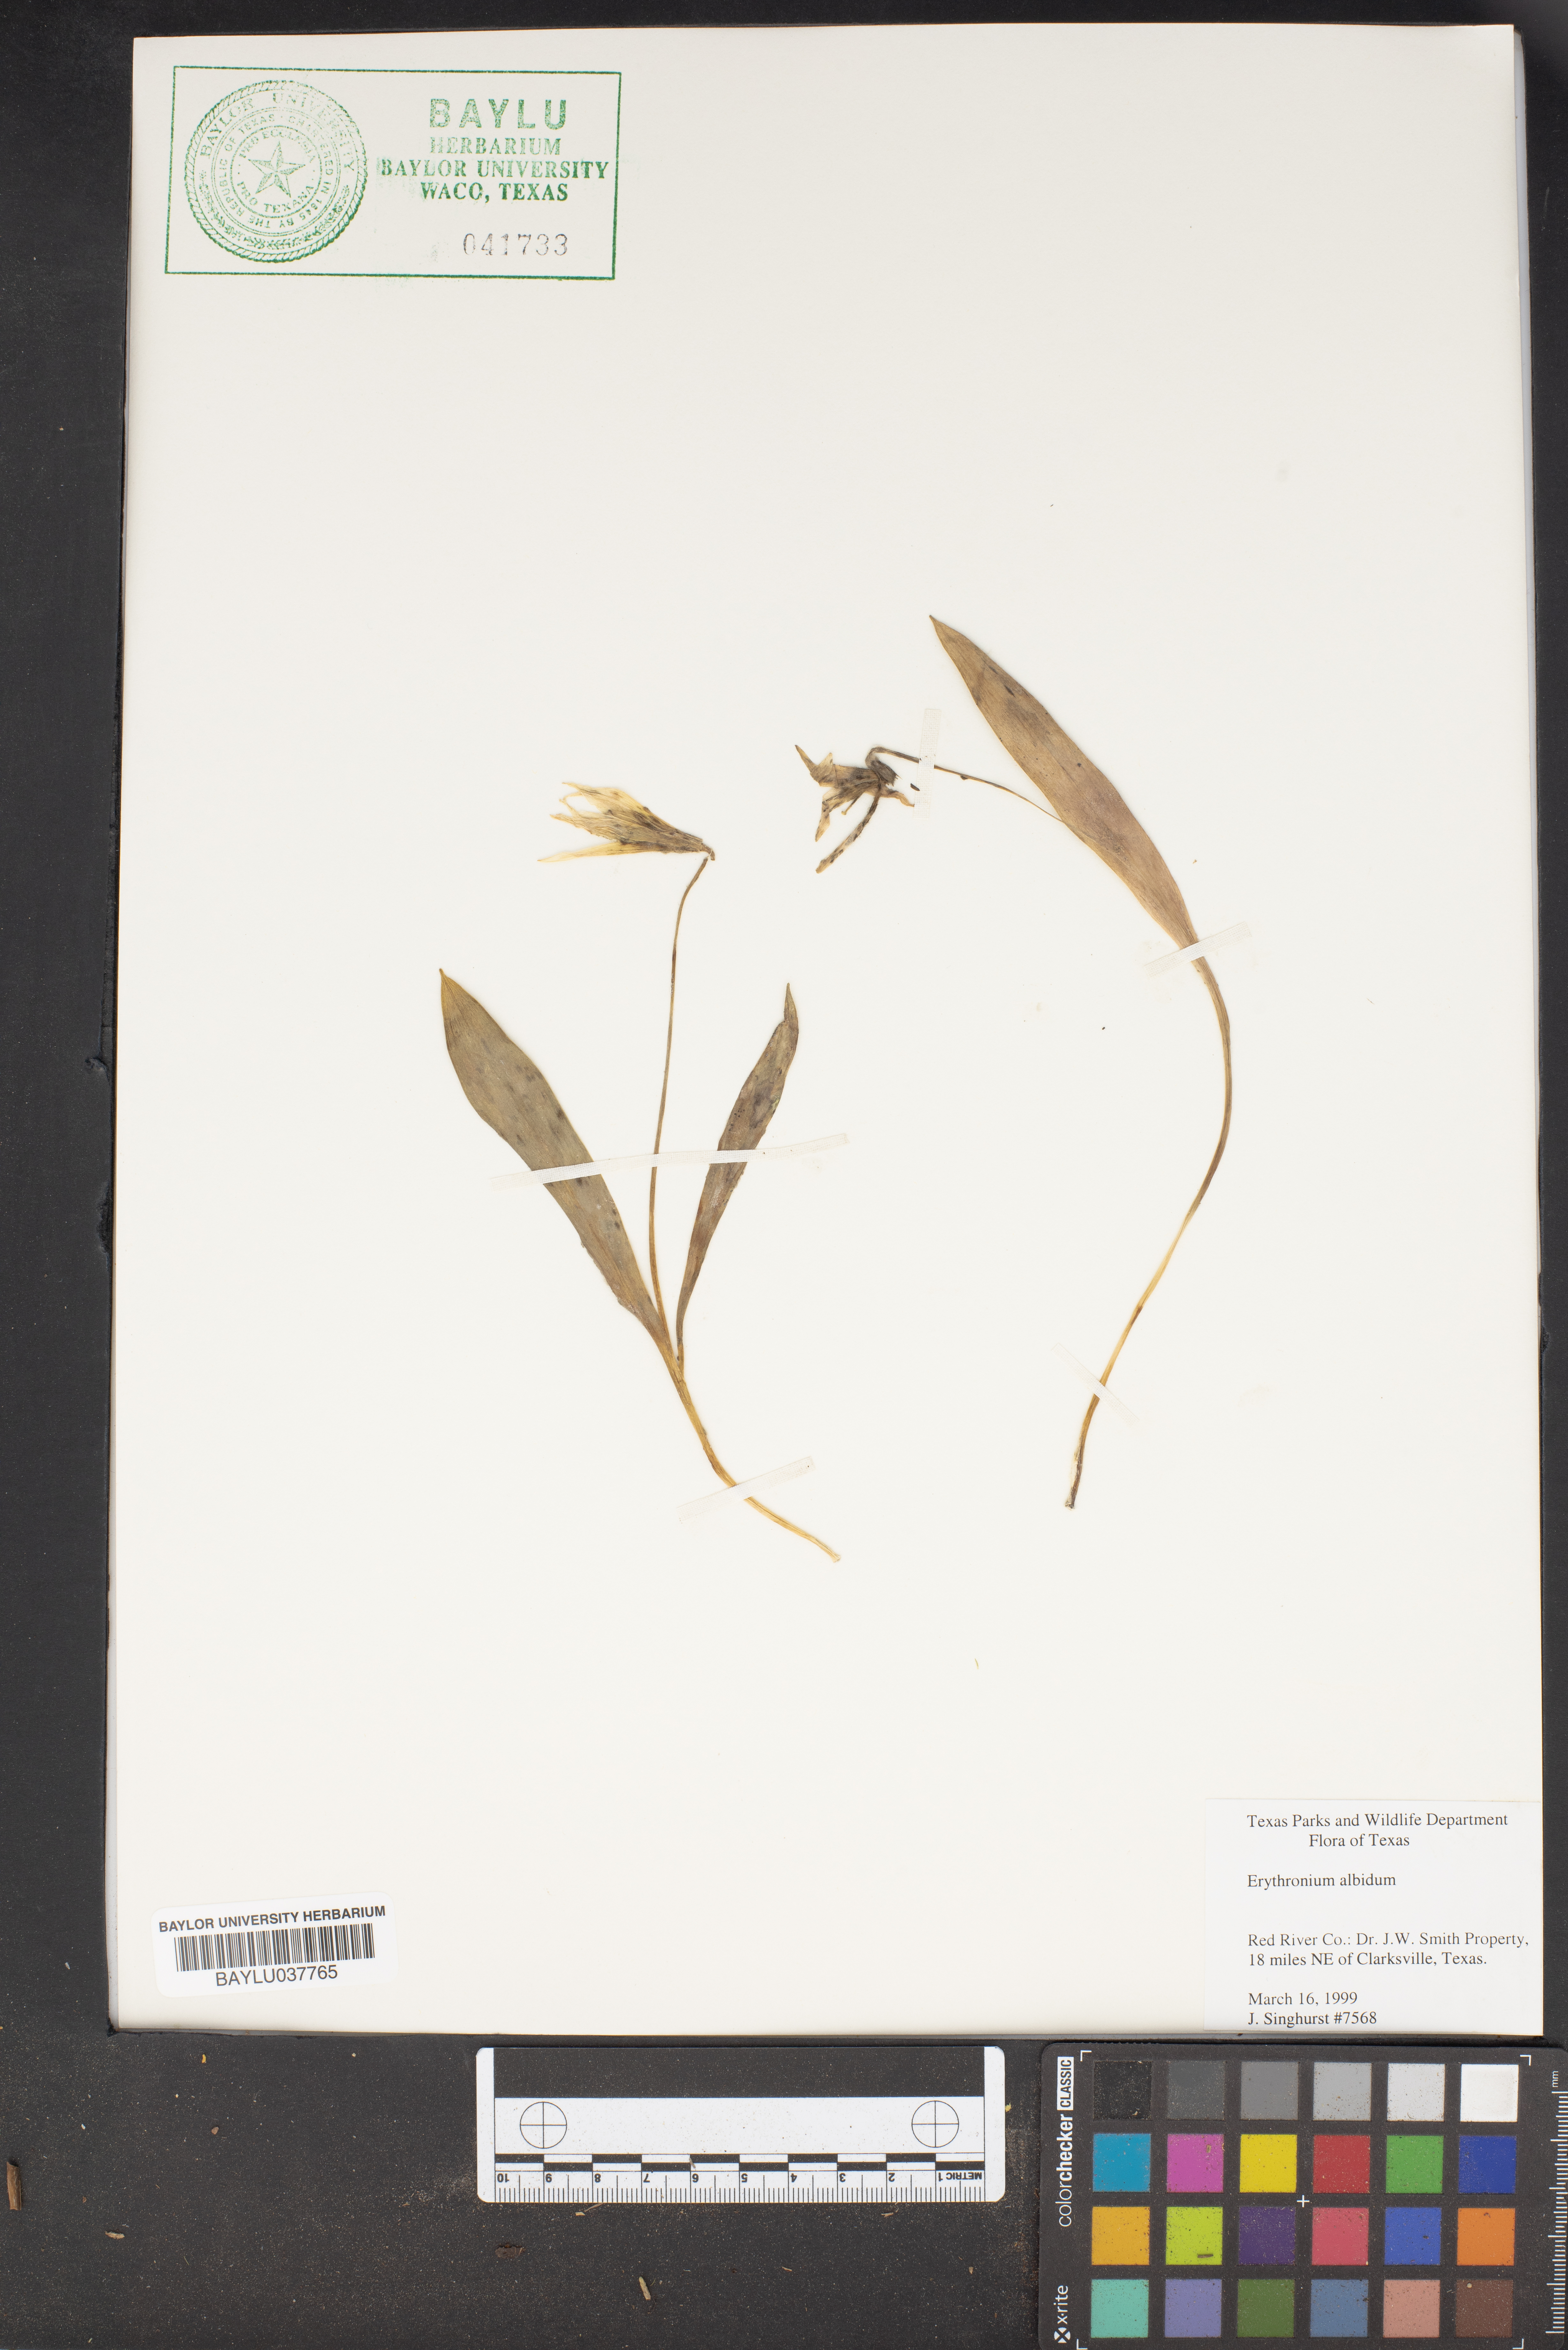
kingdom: Plantae
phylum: Tracheophyta
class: Liliopsida
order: Liliales
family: Liliaceae
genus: Erythronium
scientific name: Erythronium albidum
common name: White trout-lily
